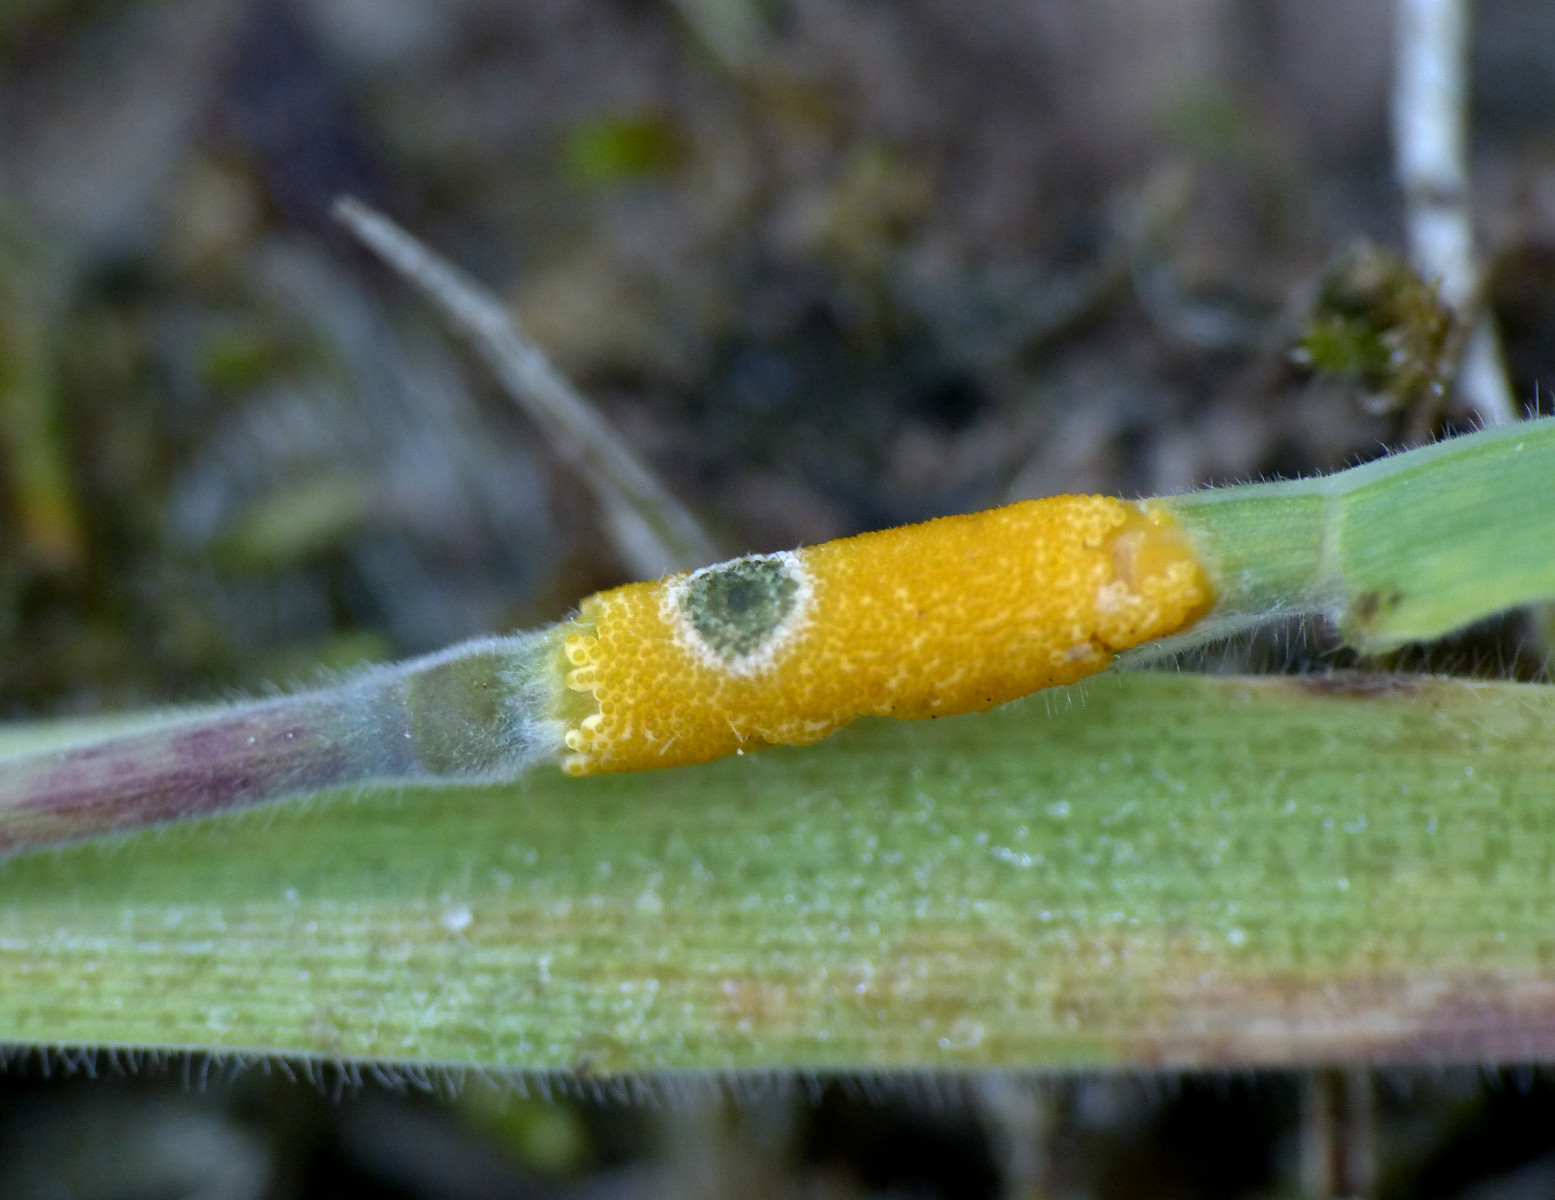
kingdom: Fungi
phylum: Ascomycota
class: Sordariomycetes
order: Hypocreales
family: Clavicipitaceae
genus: Epichloe
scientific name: Epichloe clarkii
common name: fløjlsgræs-kernerør
